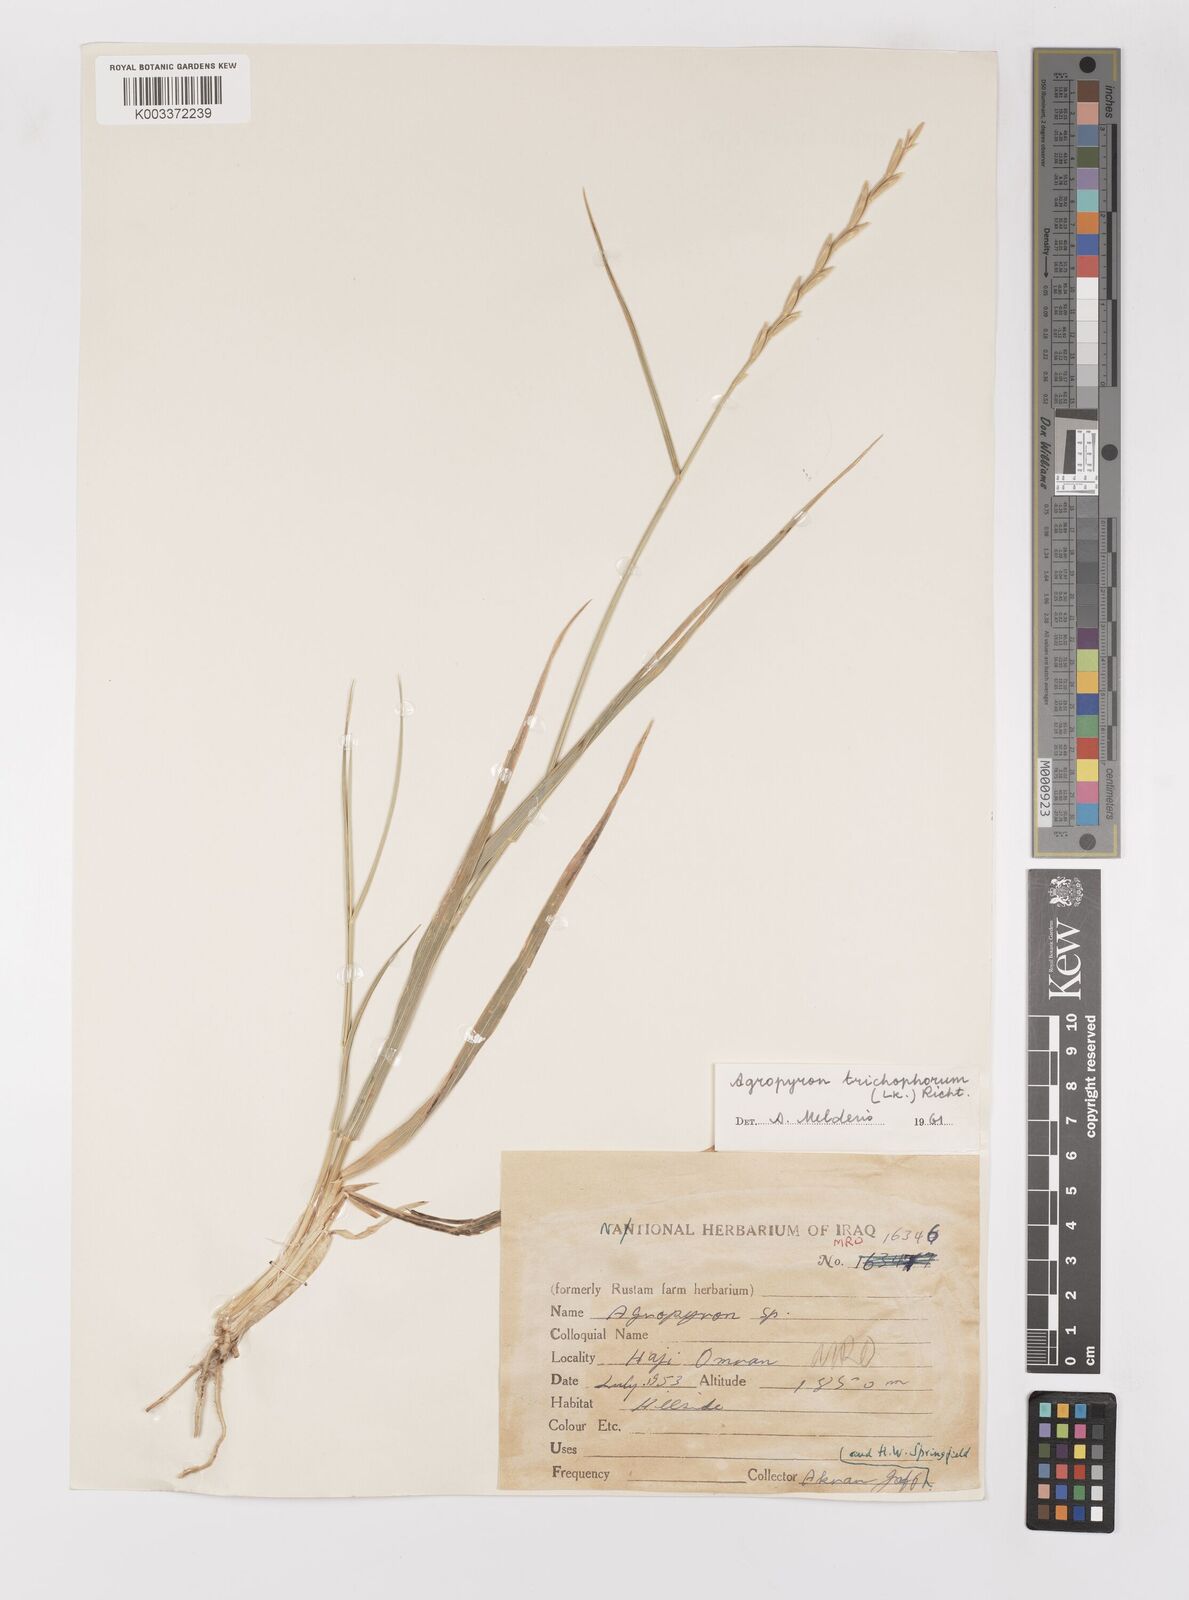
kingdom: Plantae
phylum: Tracheophyta
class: Liliopsida
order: Poales
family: Poaceae
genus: Thinopyrum
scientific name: Thinopyrum intermedium
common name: Intermediate wheatgrass
